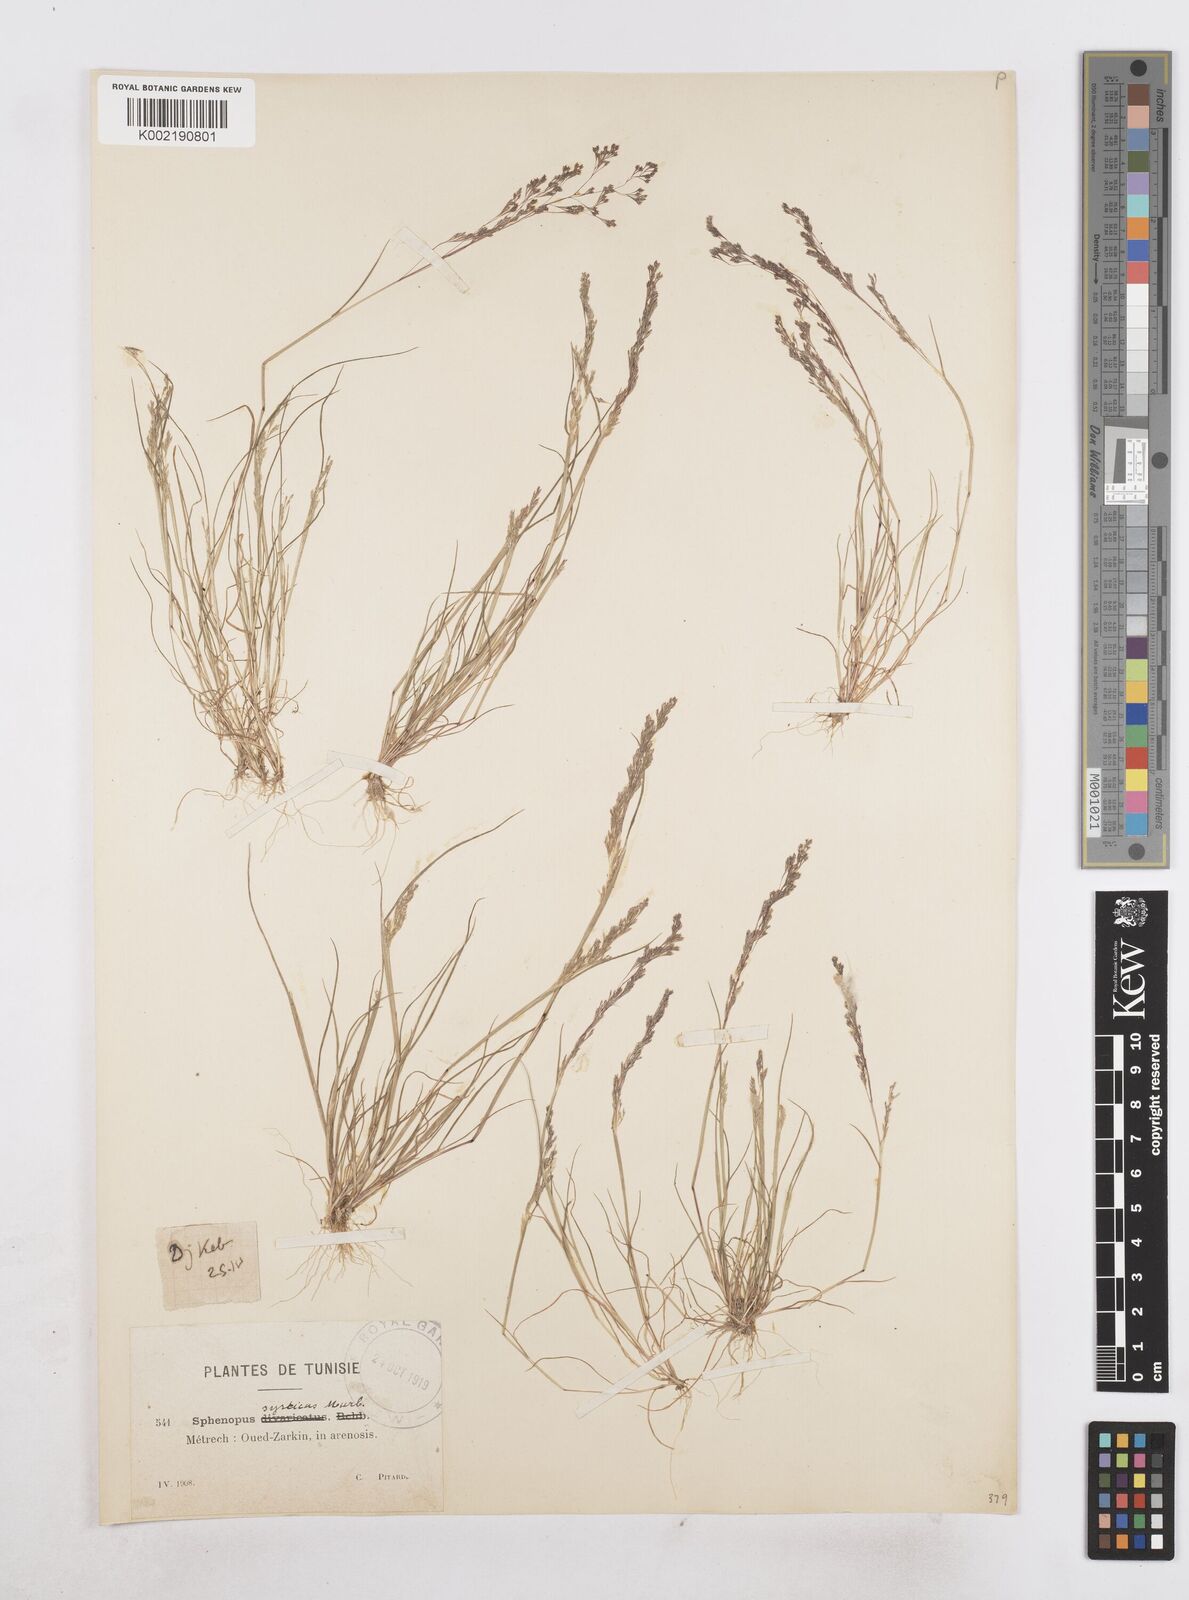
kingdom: Plantae
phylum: Tracheophyta
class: Liliopsida
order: Poales
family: Poaceae
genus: Sphenopus
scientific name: Sphenopus divaricatus
